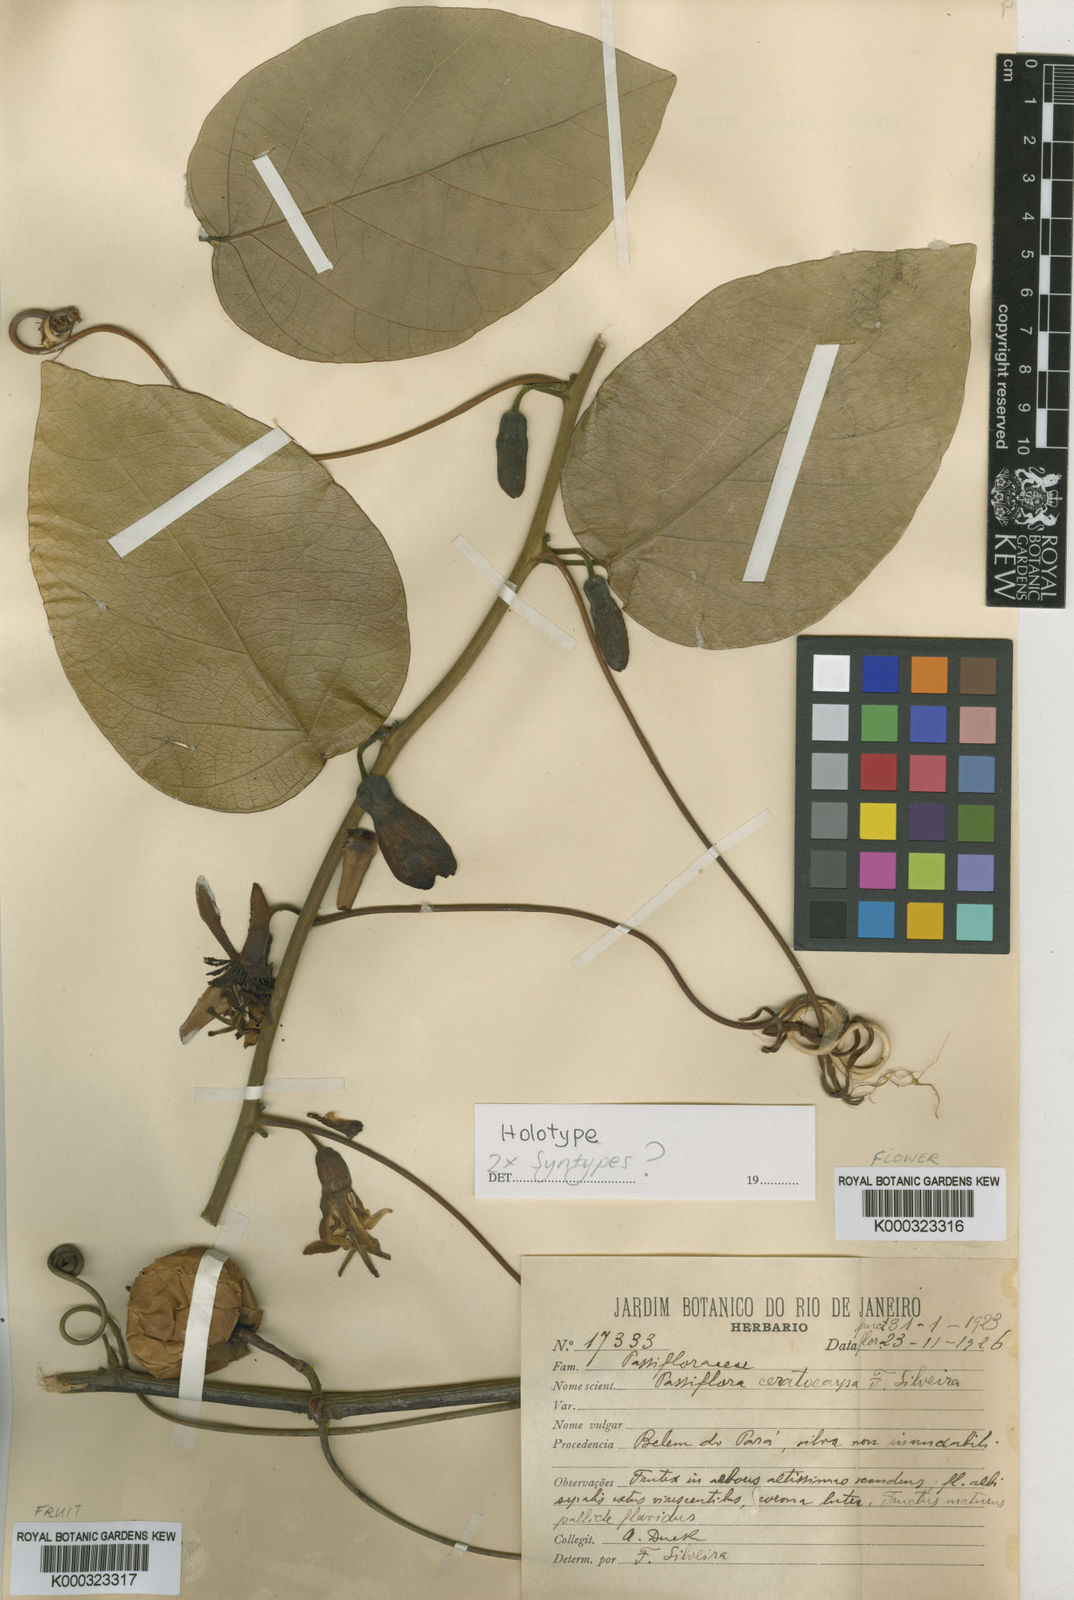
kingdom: Plantae
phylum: Tracheophyta
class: Magnoliopsida
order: Malpighiales
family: Passifloraceae
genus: Passiflora
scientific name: Passiflora ceratocarpa
